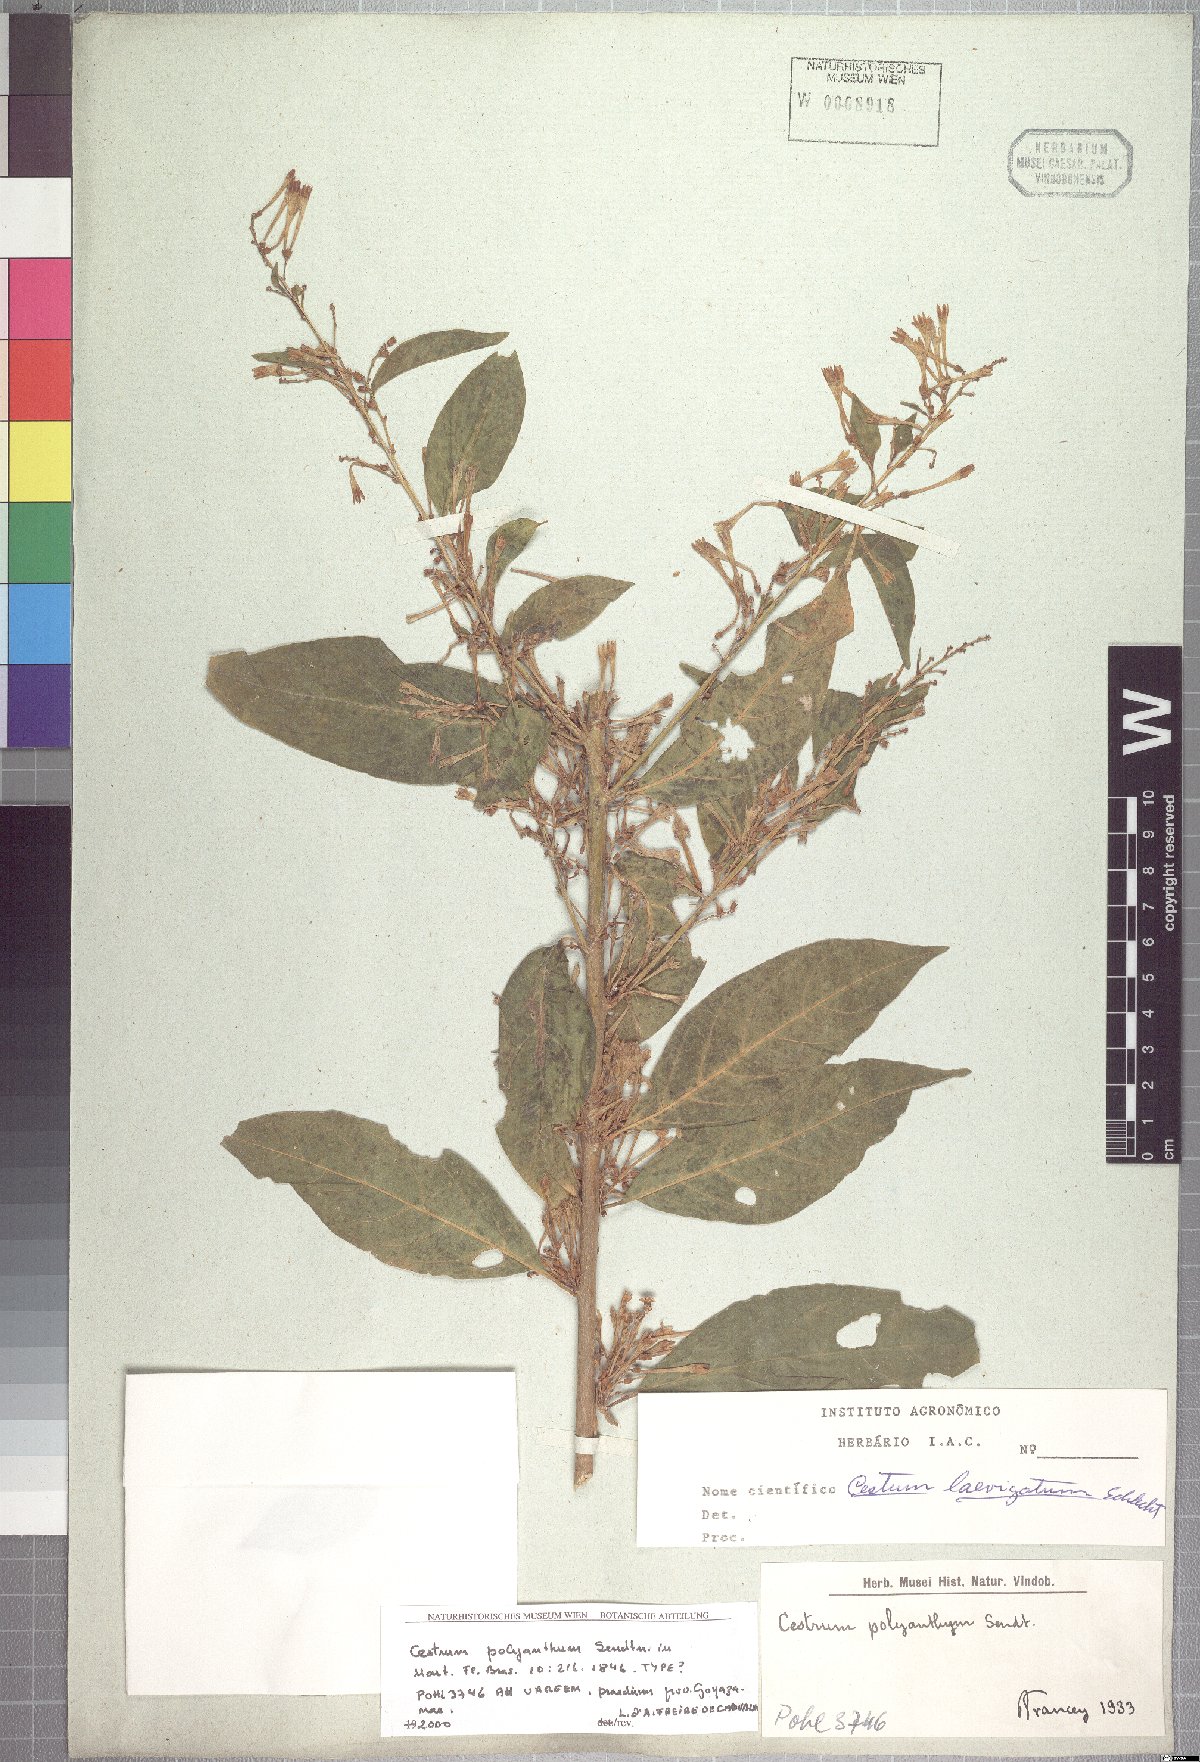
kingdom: Plantae
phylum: Tracheophyta
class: Magnoliopsida
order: Solanales
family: Solanaceae
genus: Cestrum
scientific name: Cestrum polyanthum
